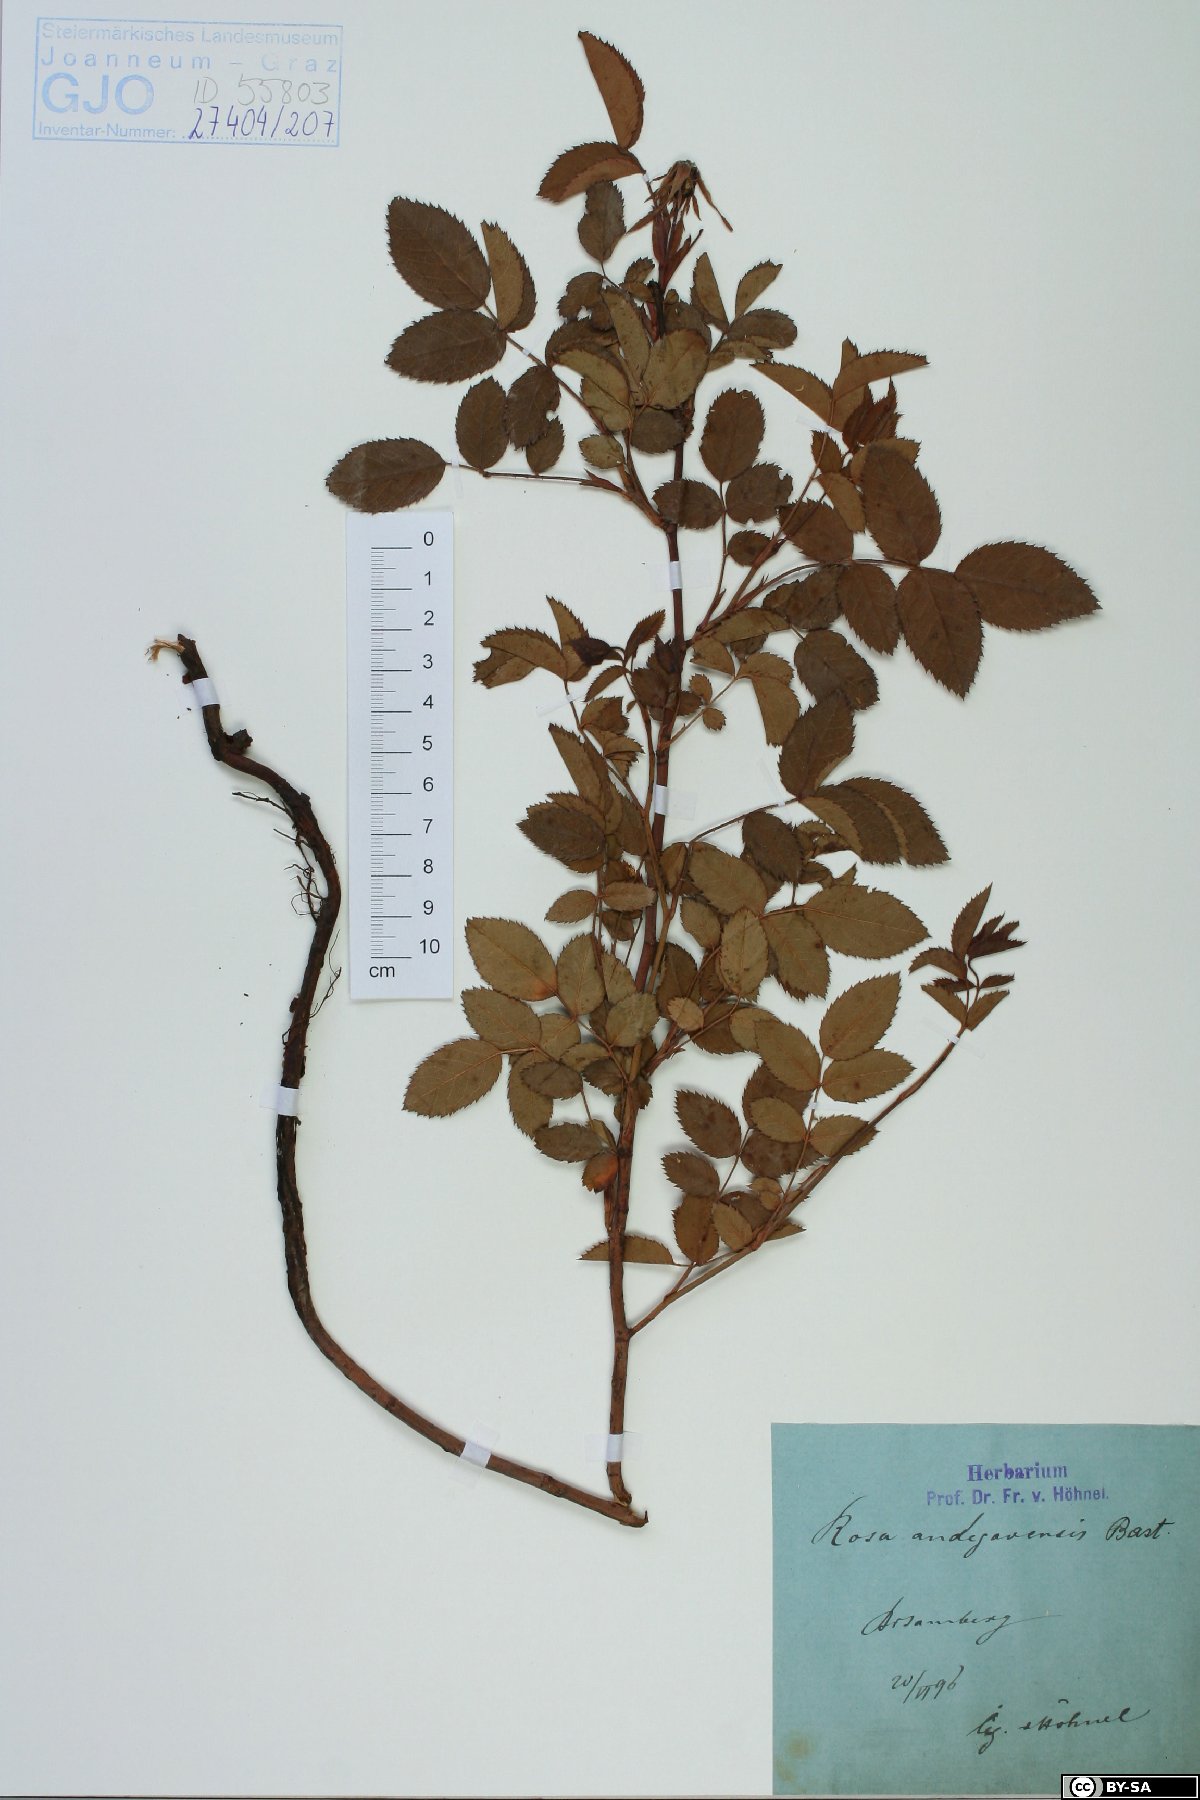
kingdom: Plantae
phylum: Tracheophyta
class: Magnoliopsida
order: Rosales
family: Rosaceae
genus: Rosa
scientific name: Rosa canina
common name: Dog rose
